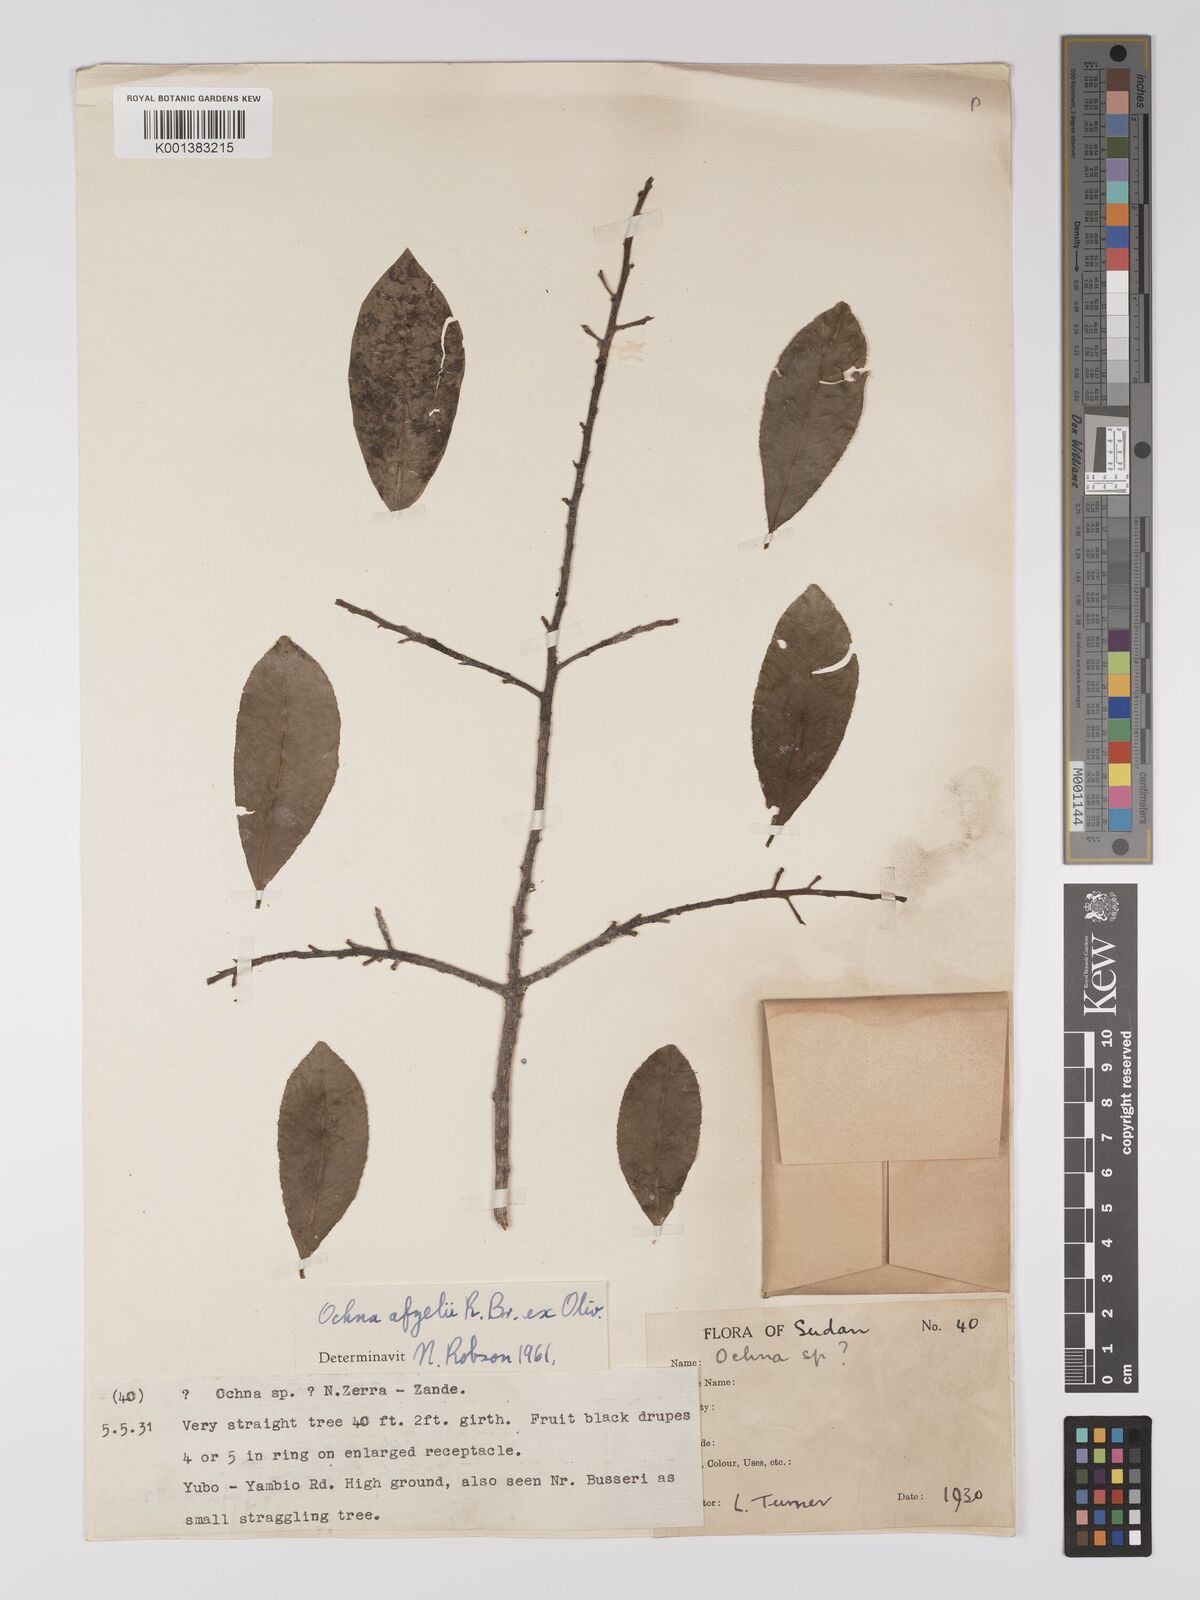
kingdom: Plantae
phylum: Tracheophyta
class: Magnoliopsida
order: Malpighiales
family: Ochnaceae
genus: Ochna
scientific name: Ochna afzelii
